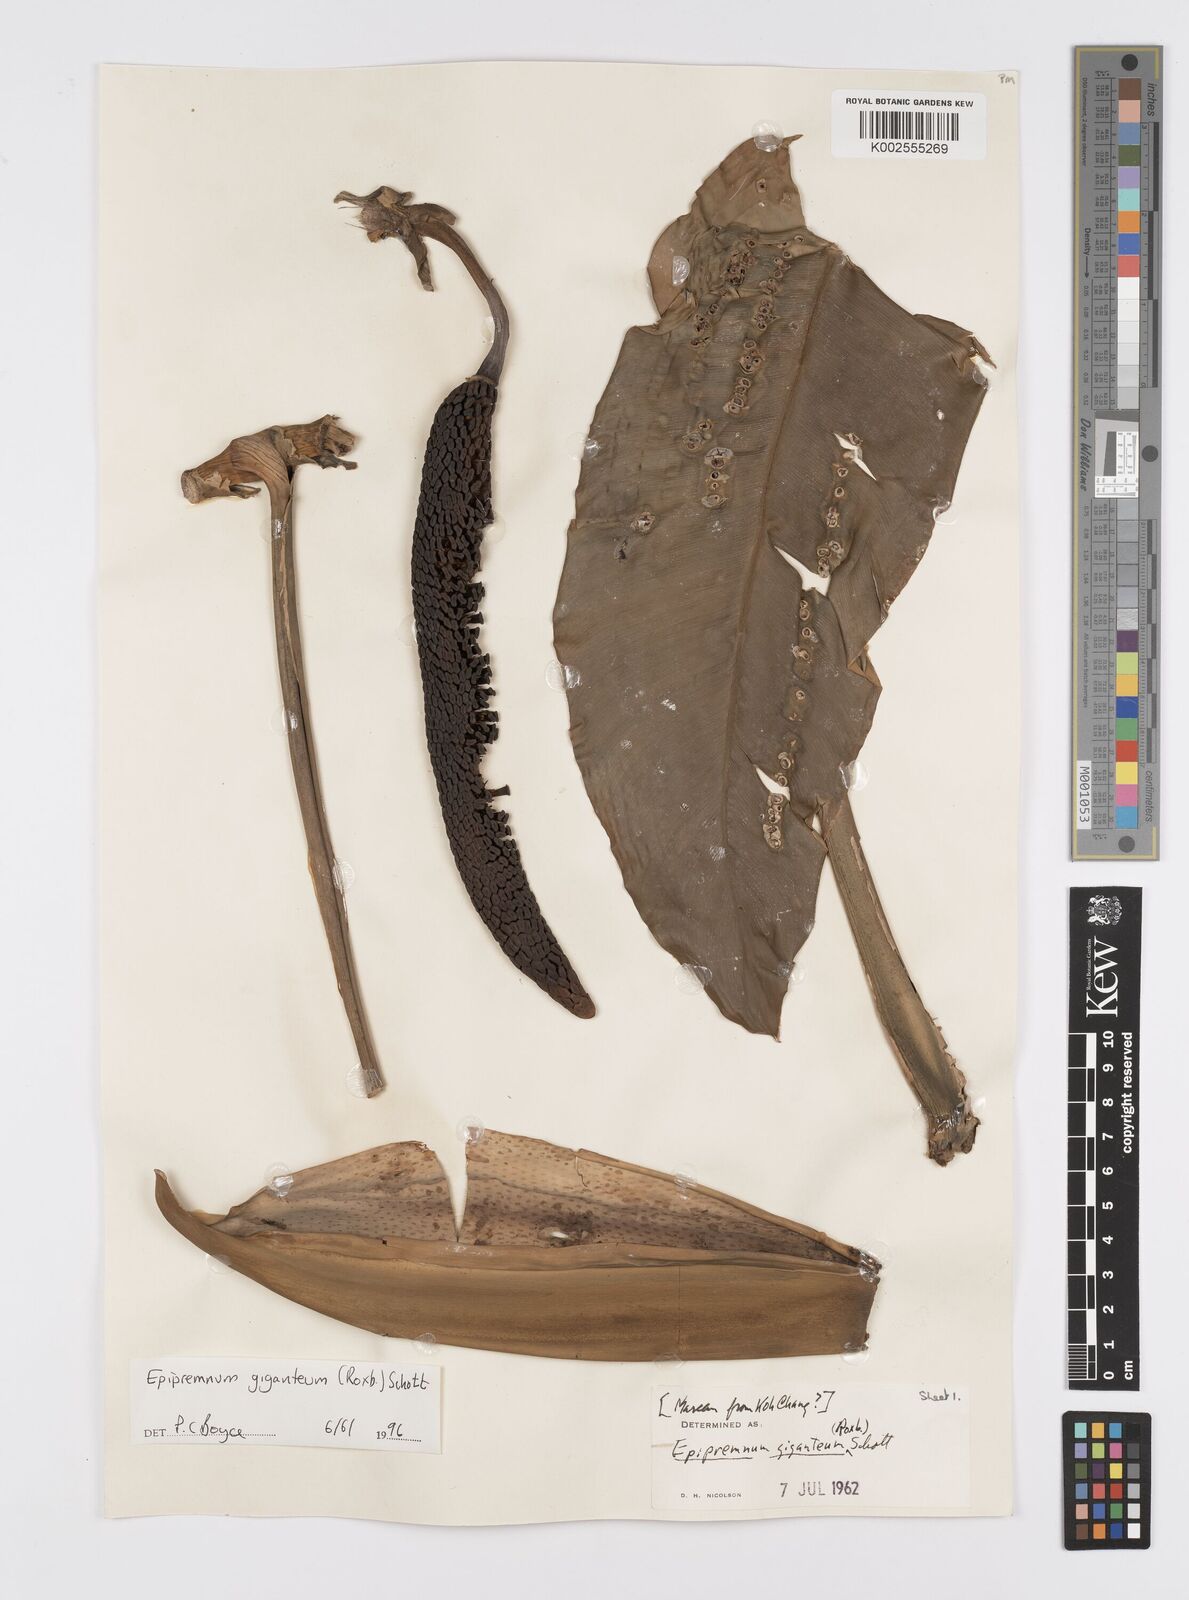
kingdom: Plantae
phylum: Tracheophyta
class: Liliopsida
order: Alismatales
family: Araceae
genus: Epipremnum
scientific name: Epipremnum giganteum
